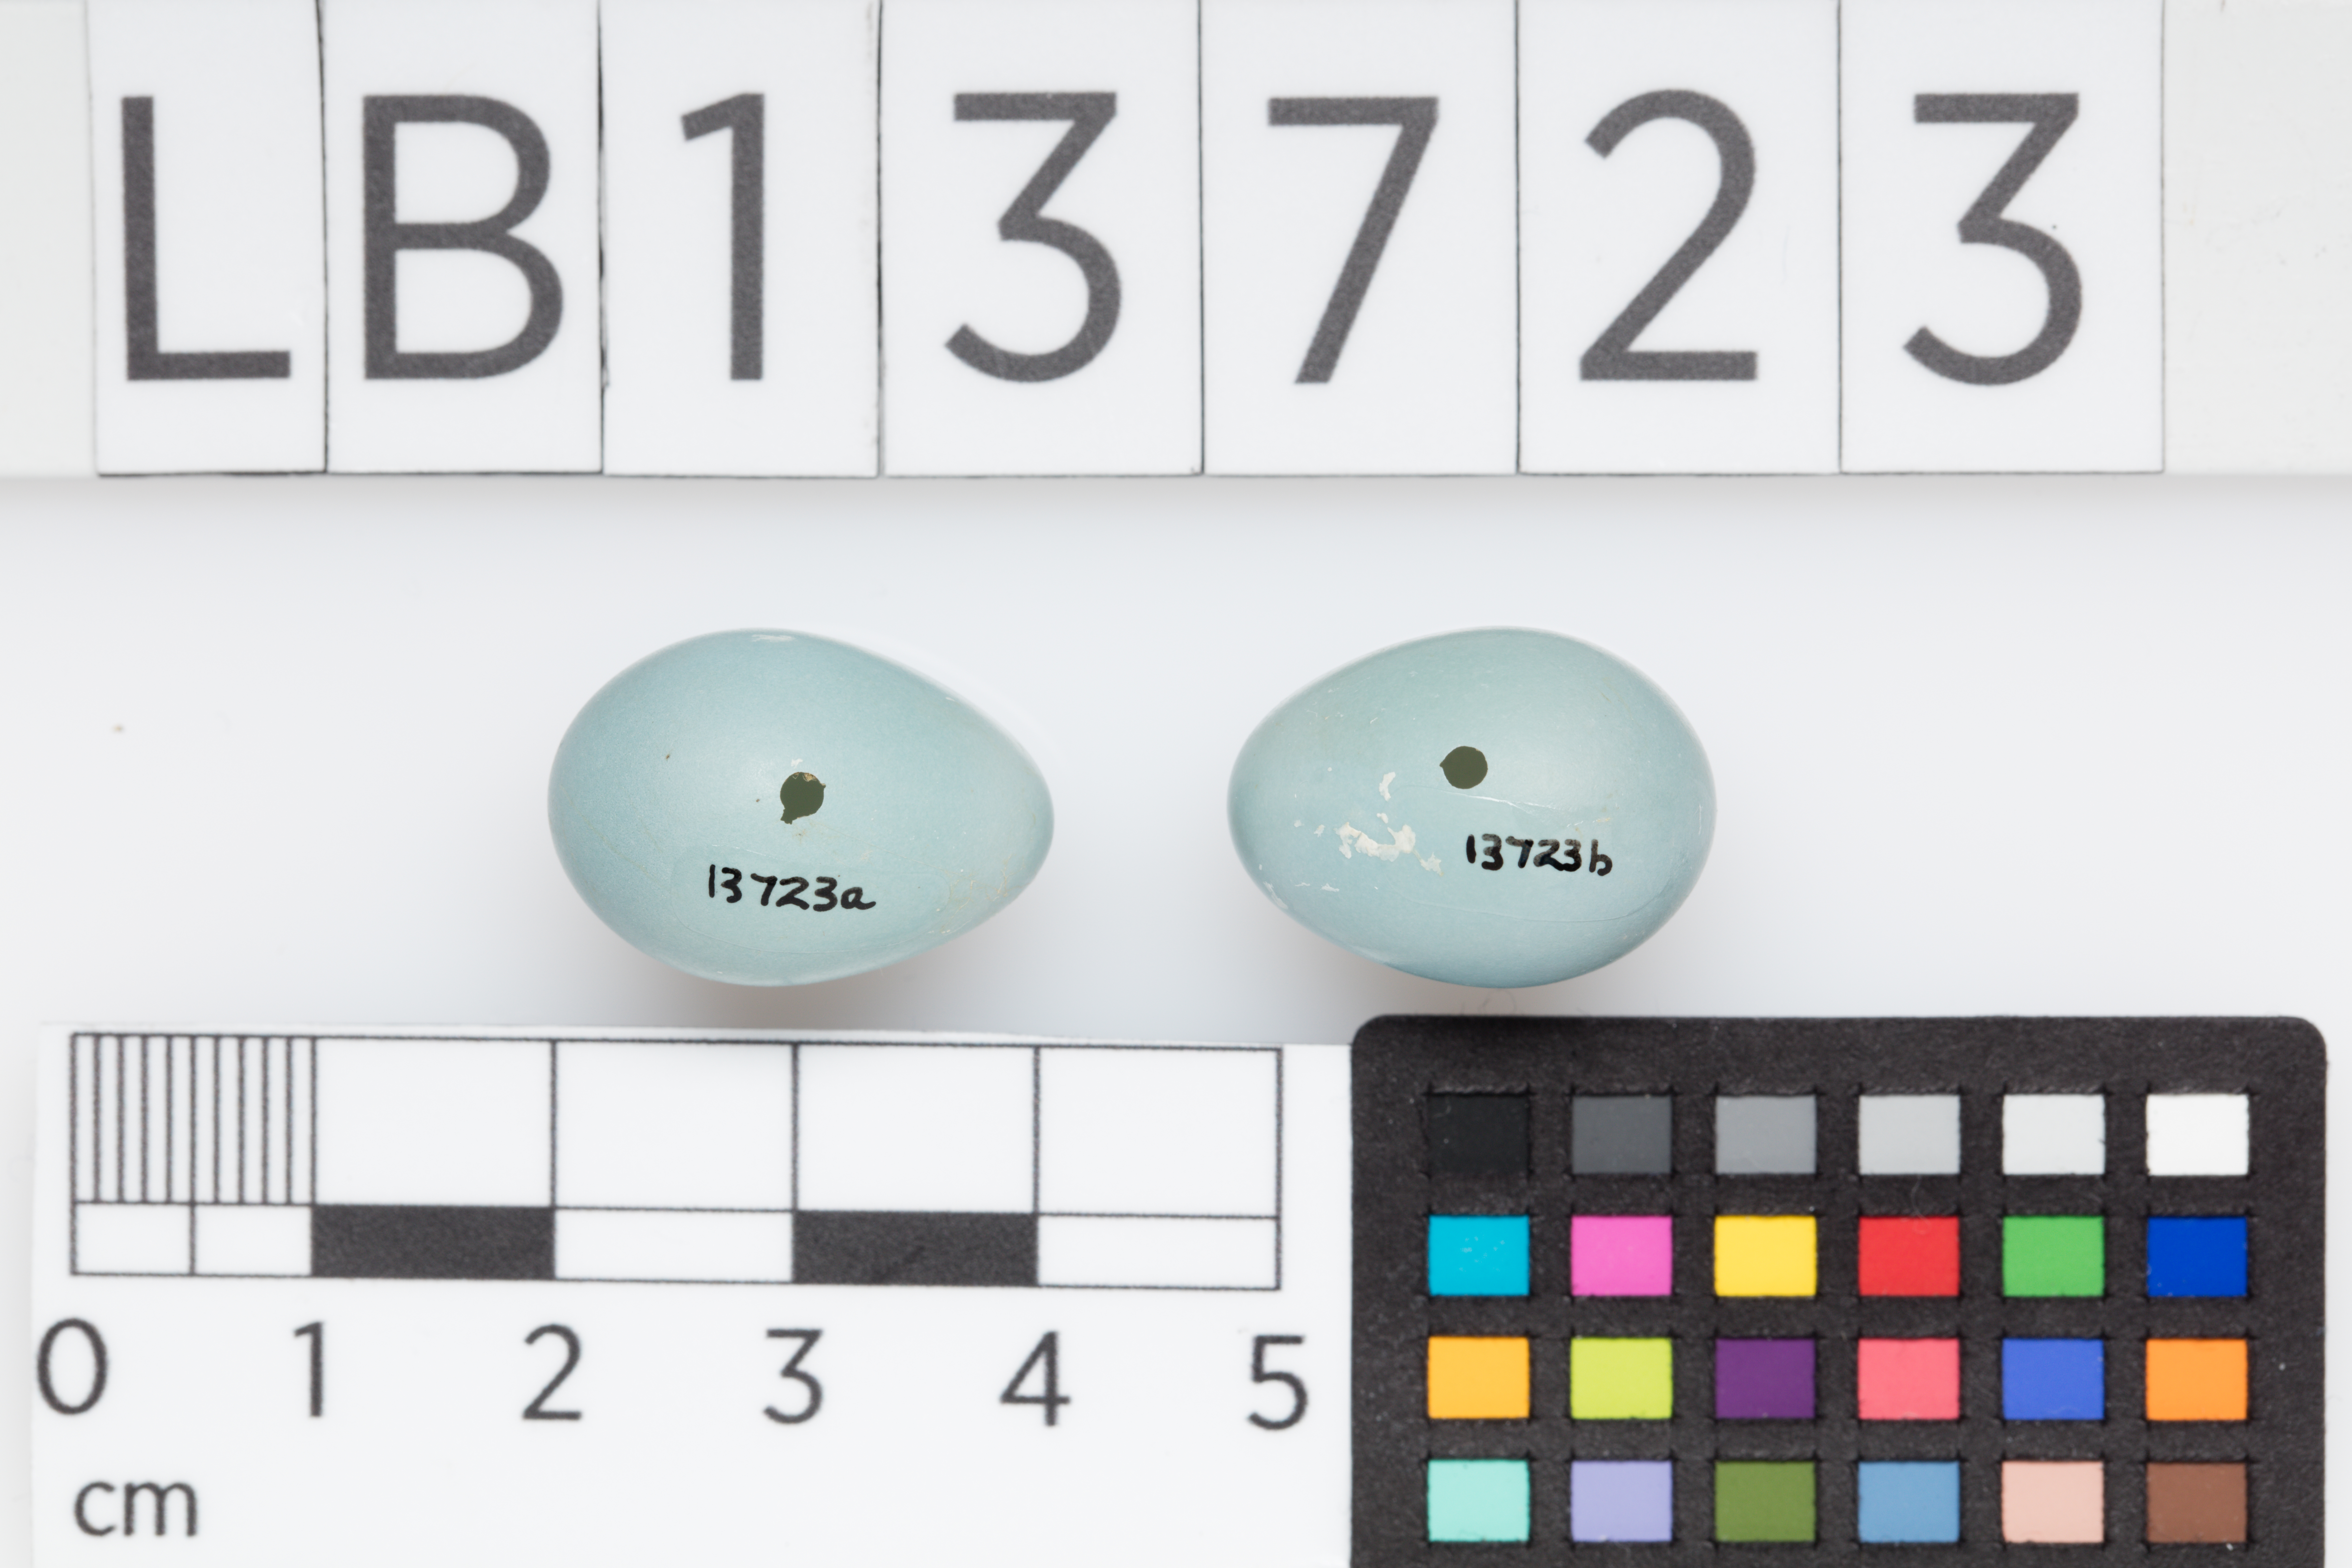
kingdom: Animalia
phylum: Chordata
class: Aves
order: Passeriformes
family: Prunellidae
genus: Prunella
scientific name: Prunella modularis
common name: Dunnock
